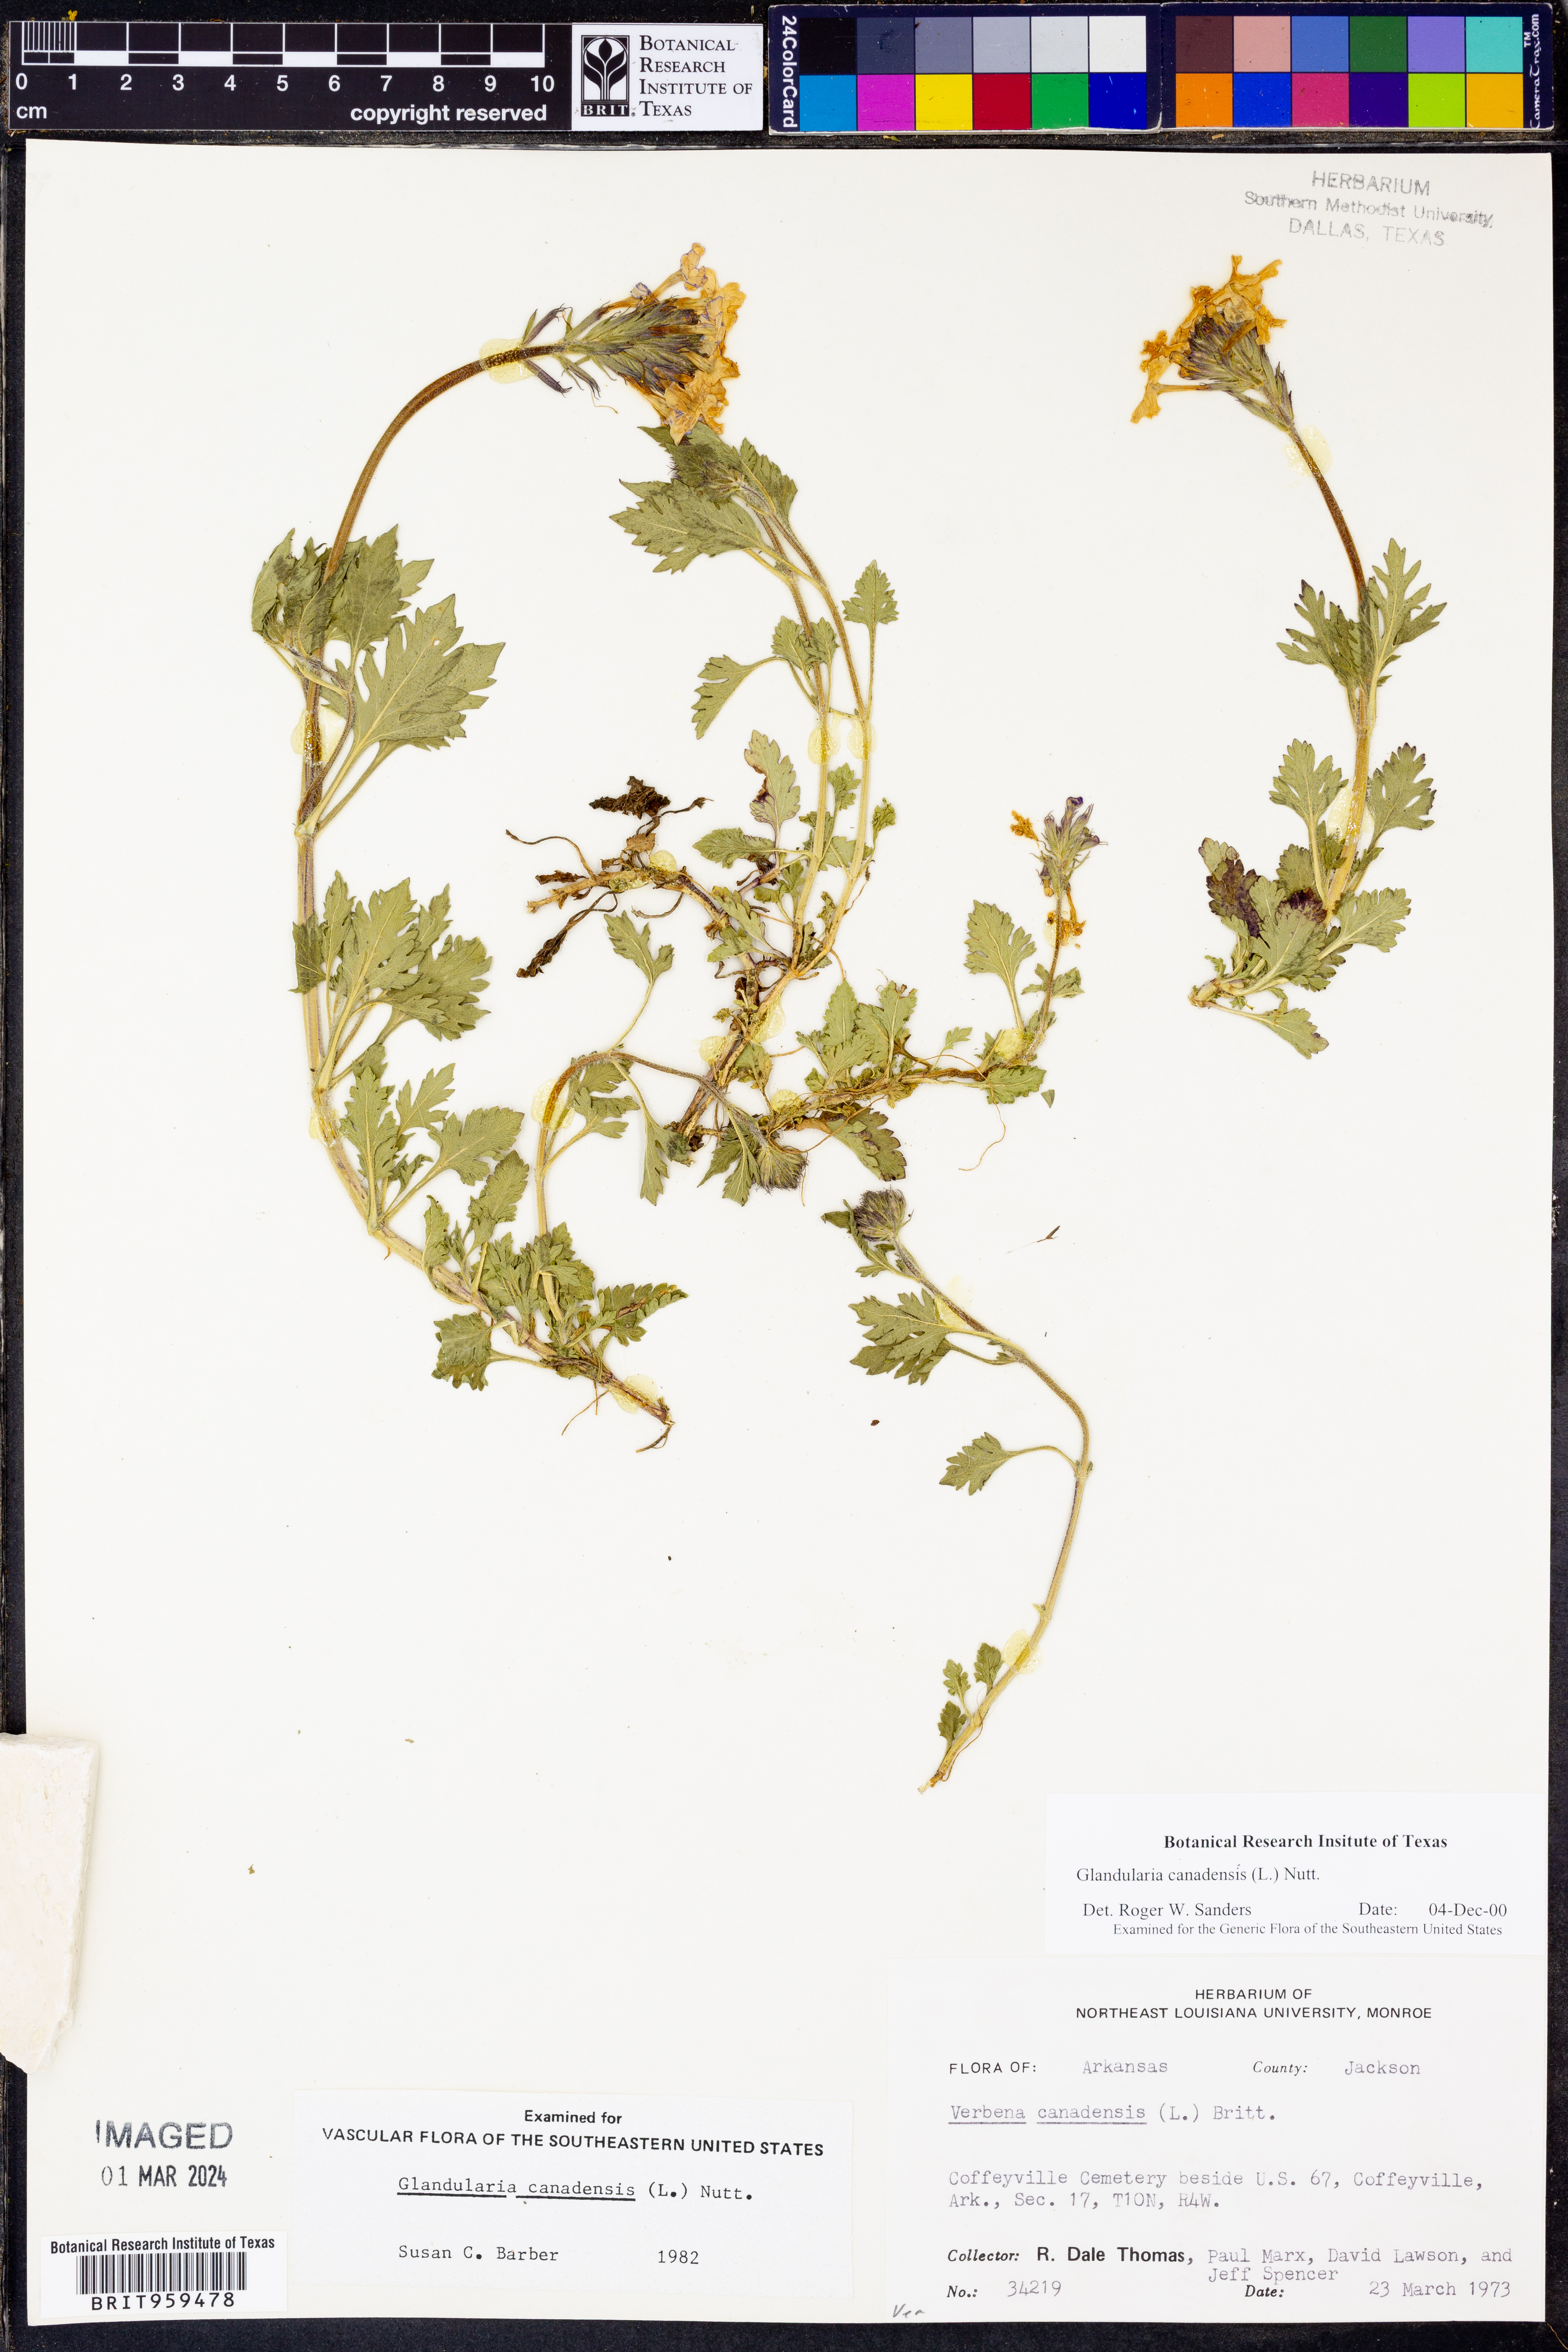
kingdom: Plantae
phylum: Tracheophyta
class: Magnoliopsida
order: Lamiales
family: Verbenaceae
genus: Verbena
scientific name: Verbena canadensis
